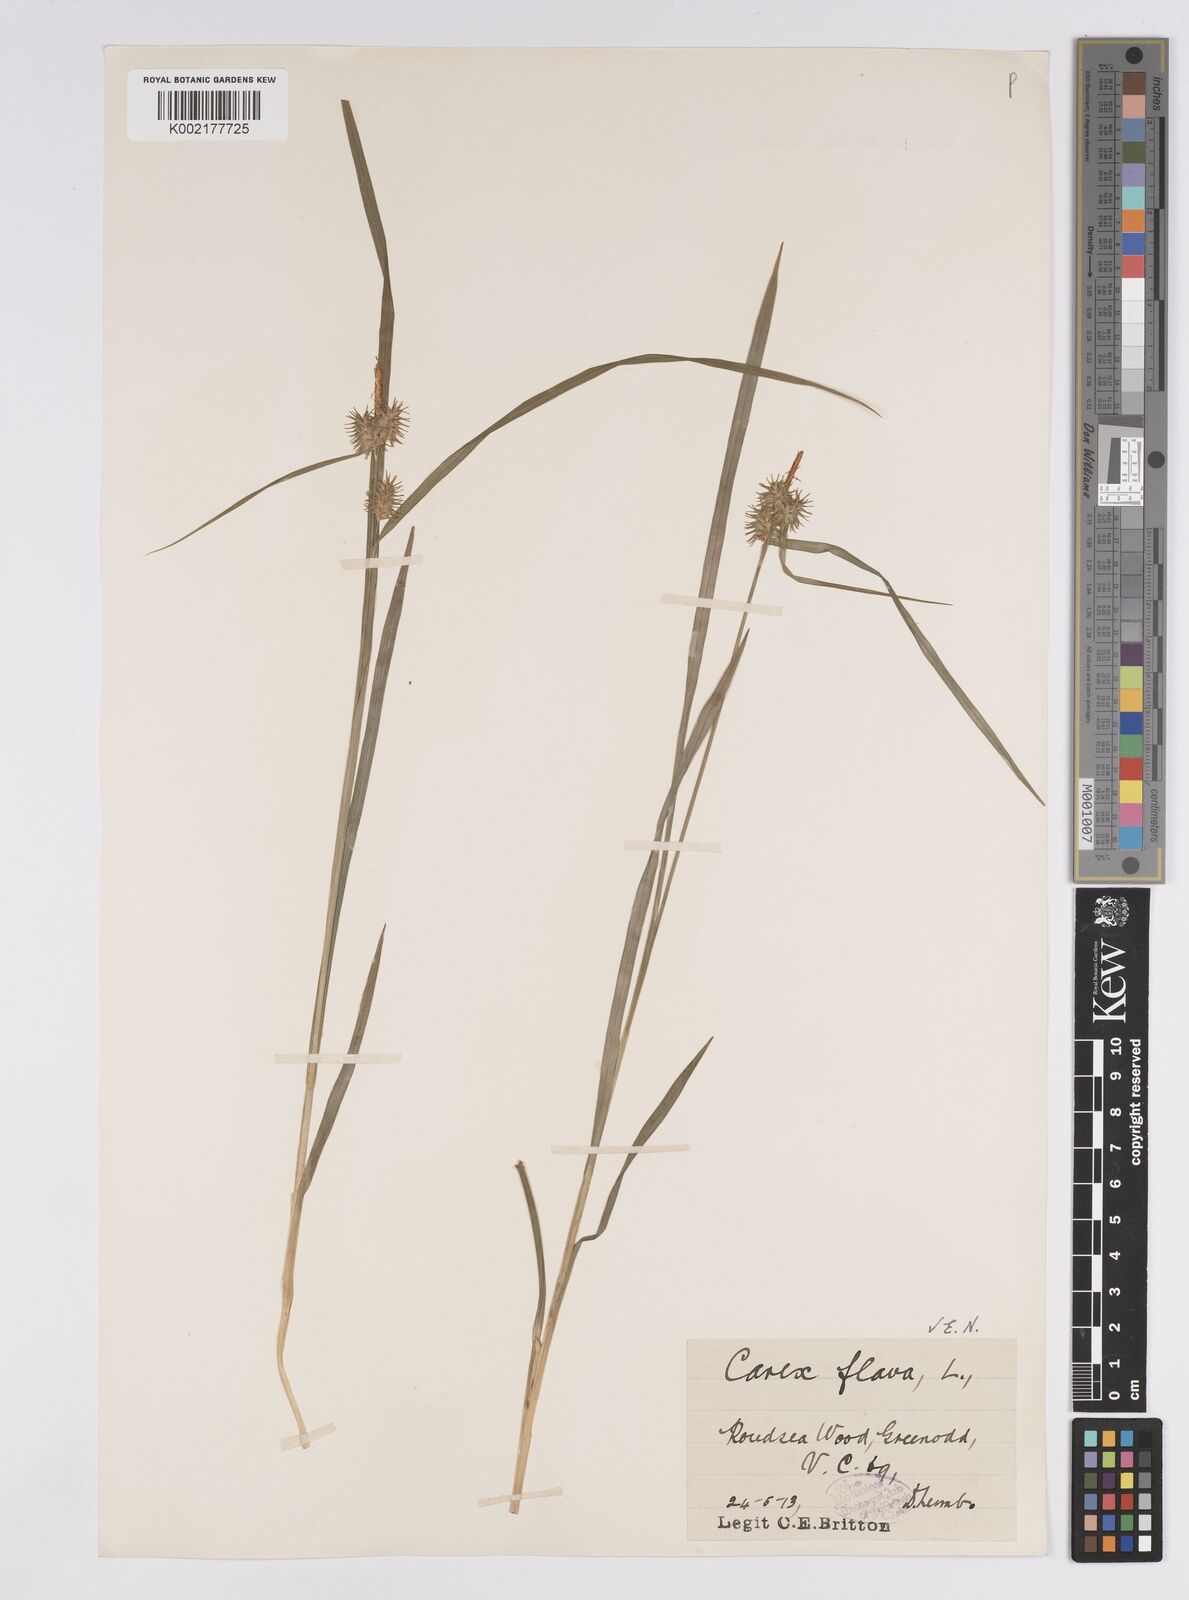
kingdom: Plantae
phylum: Tracheophyta
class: Liliopsida
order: Poales
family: Cyperaceae
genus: Carex
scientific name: Carex flava
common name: Large yellow-sedge
